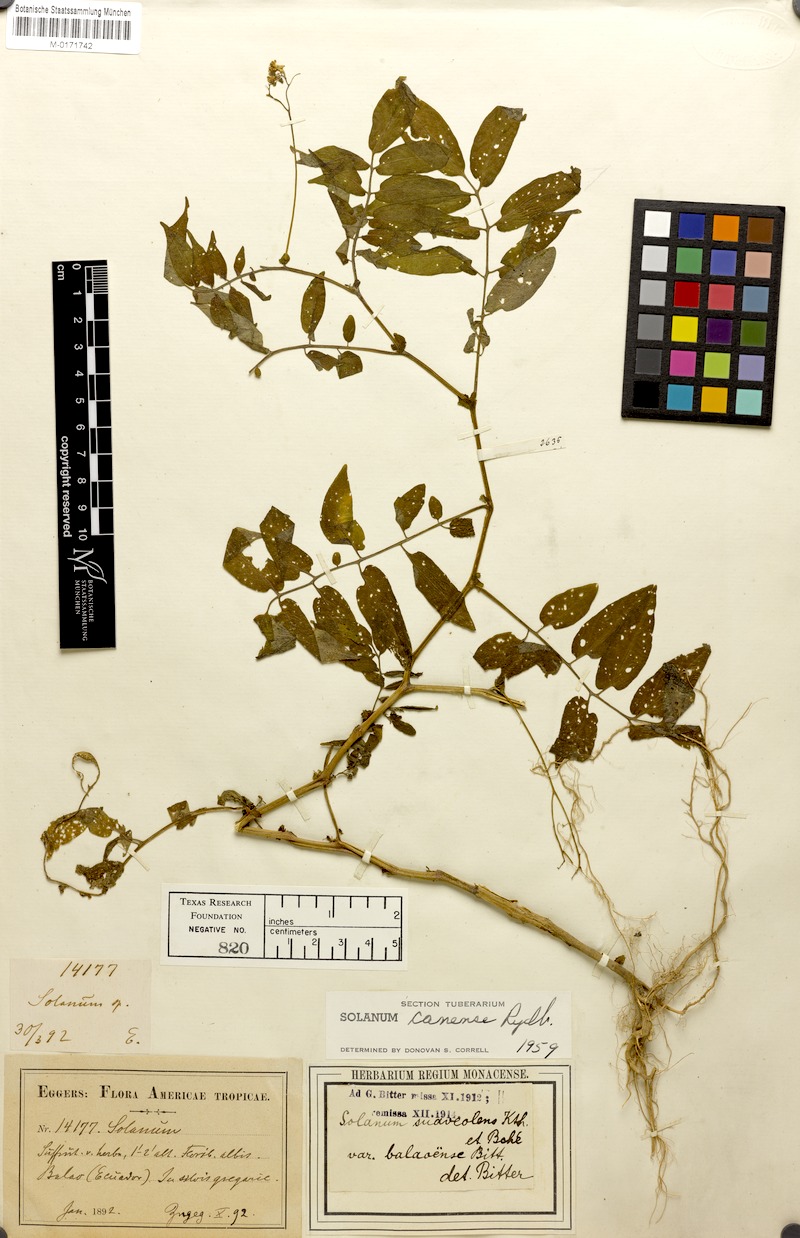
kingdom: Plantae
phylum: Tracheophyta
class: Magnoliopsida
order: Solanales
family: Solanaceae
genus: Solanum
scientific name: Solanum canense
